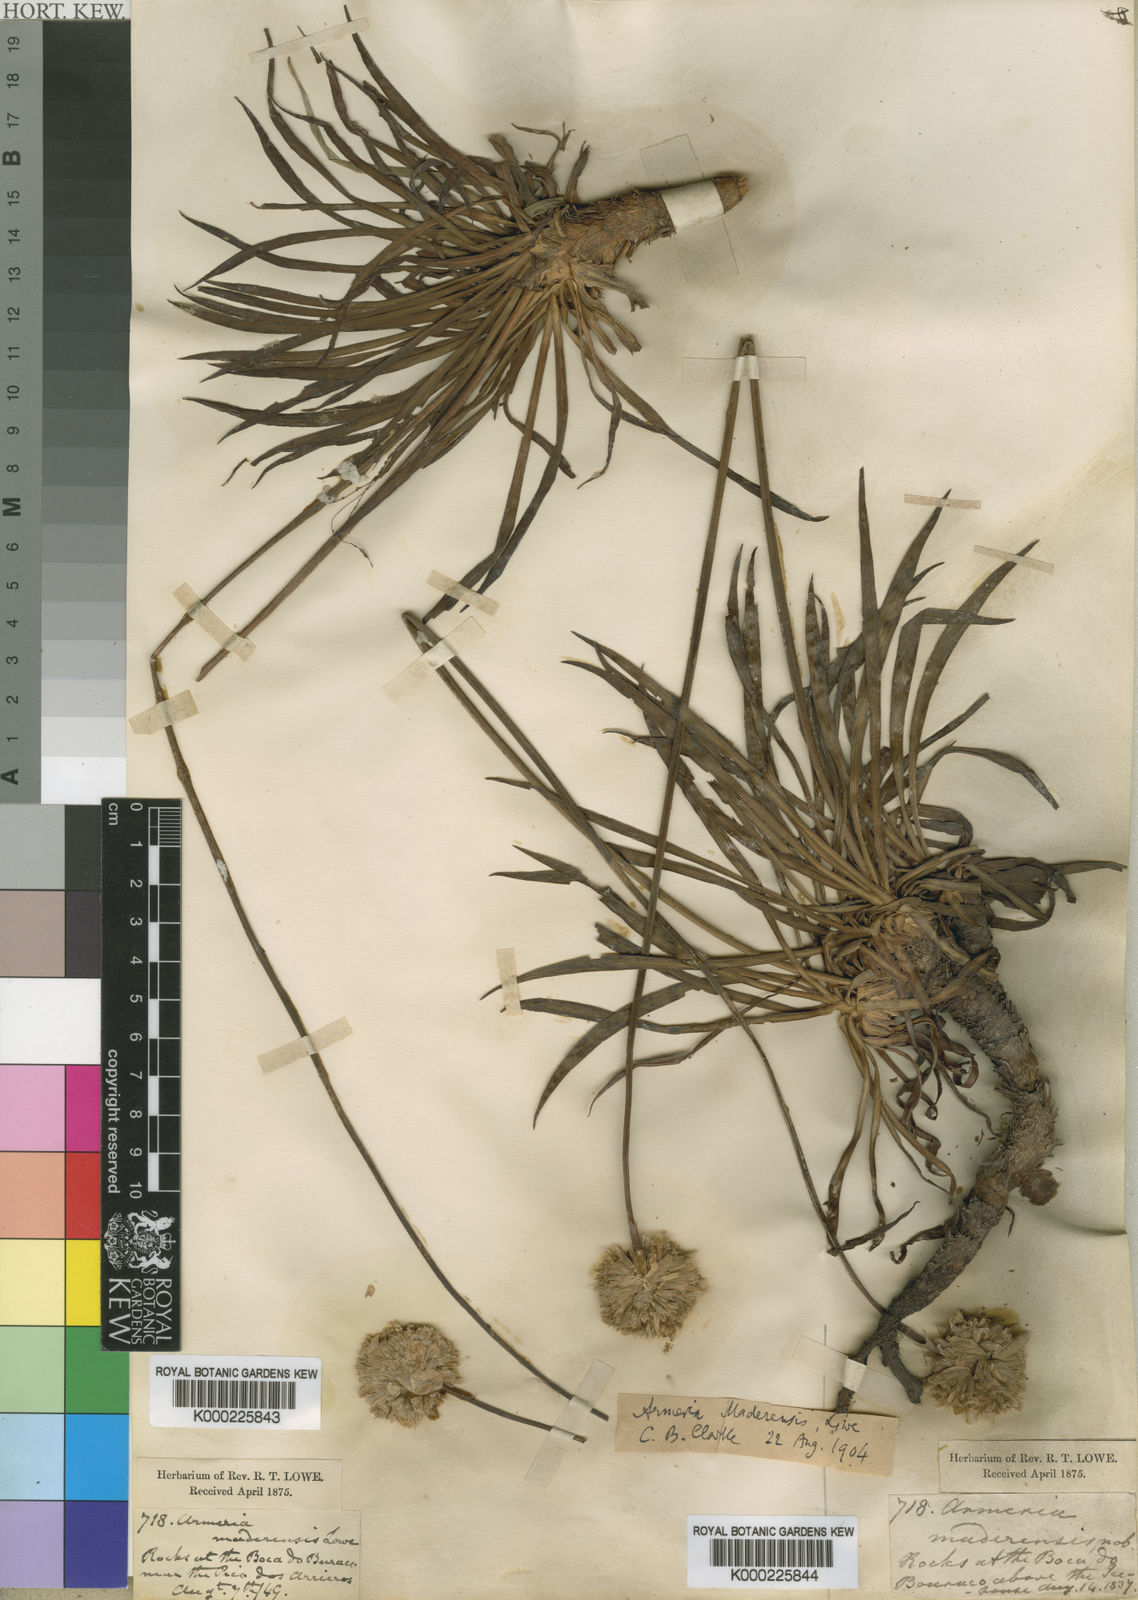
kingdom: Plantae
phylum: Tracheophyta
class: Magnoliopsida
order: Caryophyllales
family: Plumbaginaceae
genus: Armeria
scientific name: Armeria maderensis
